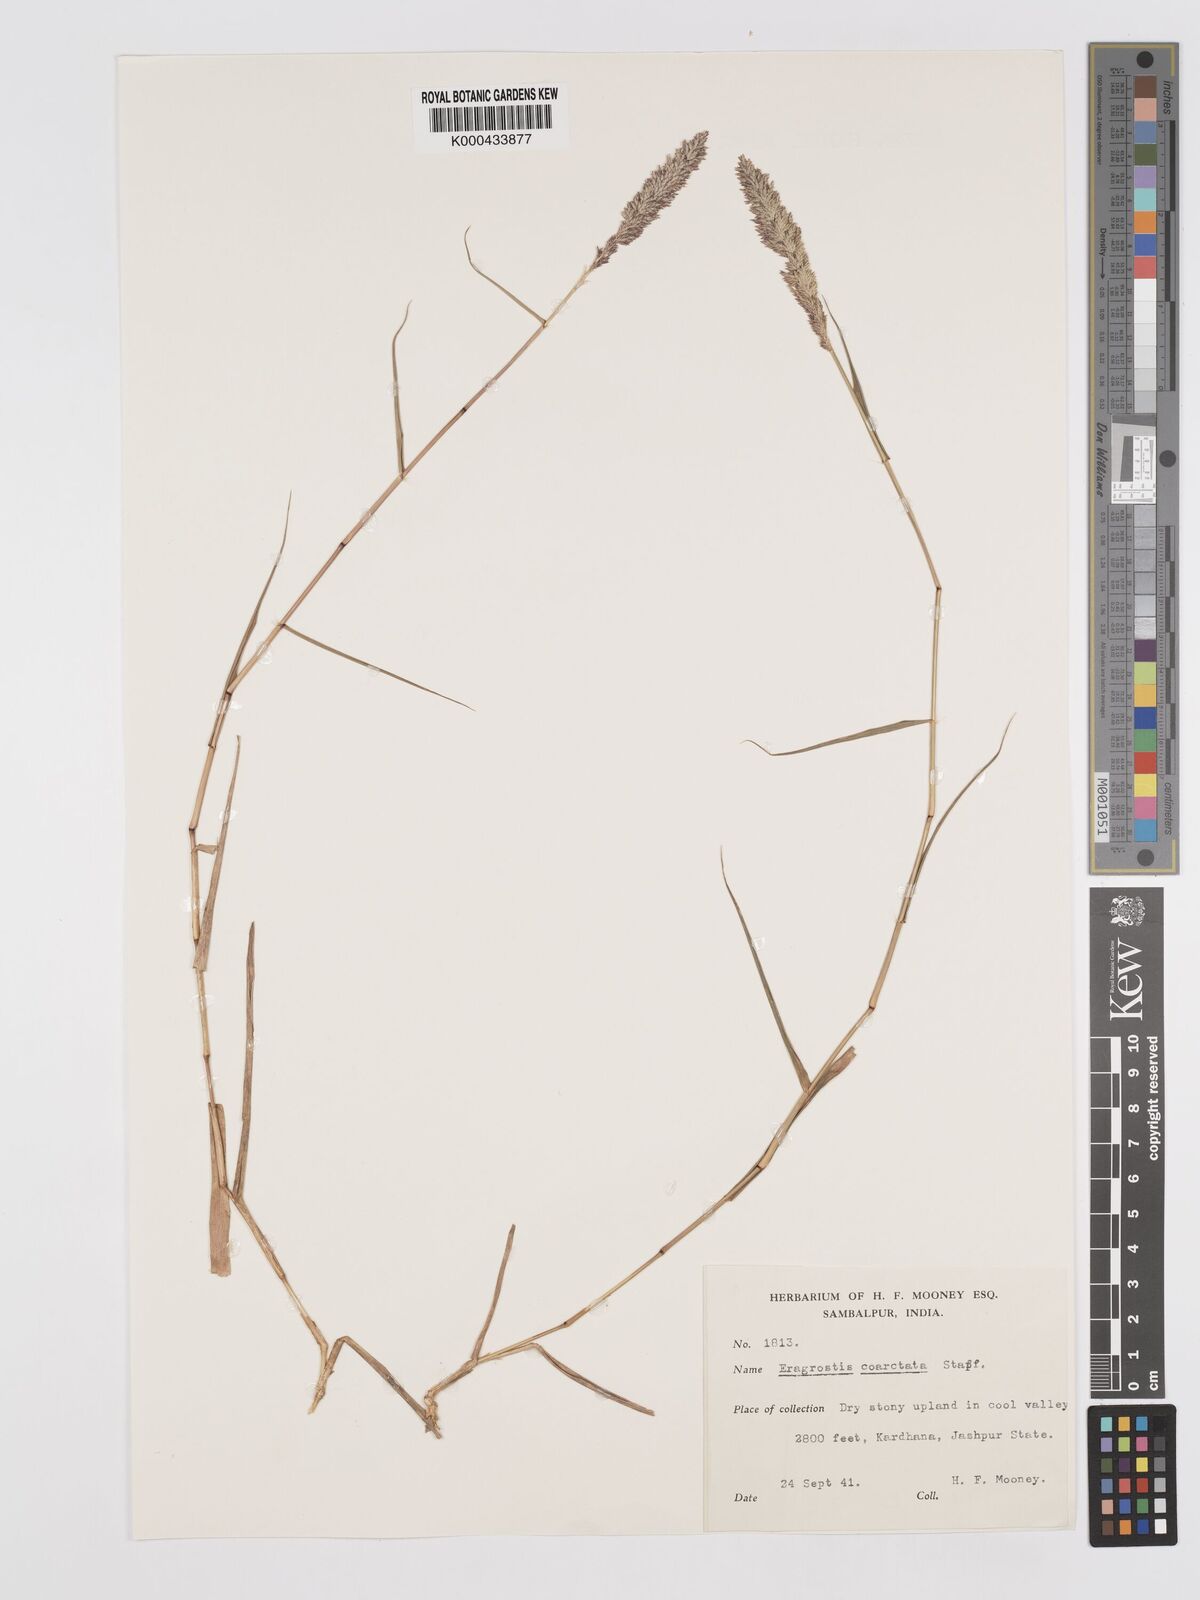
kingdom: Plantae
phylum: Tracheophyta
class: Liliopsida
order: Poales
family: Poaceae
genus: Eragrostis
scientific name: Eragrostis coarctata
